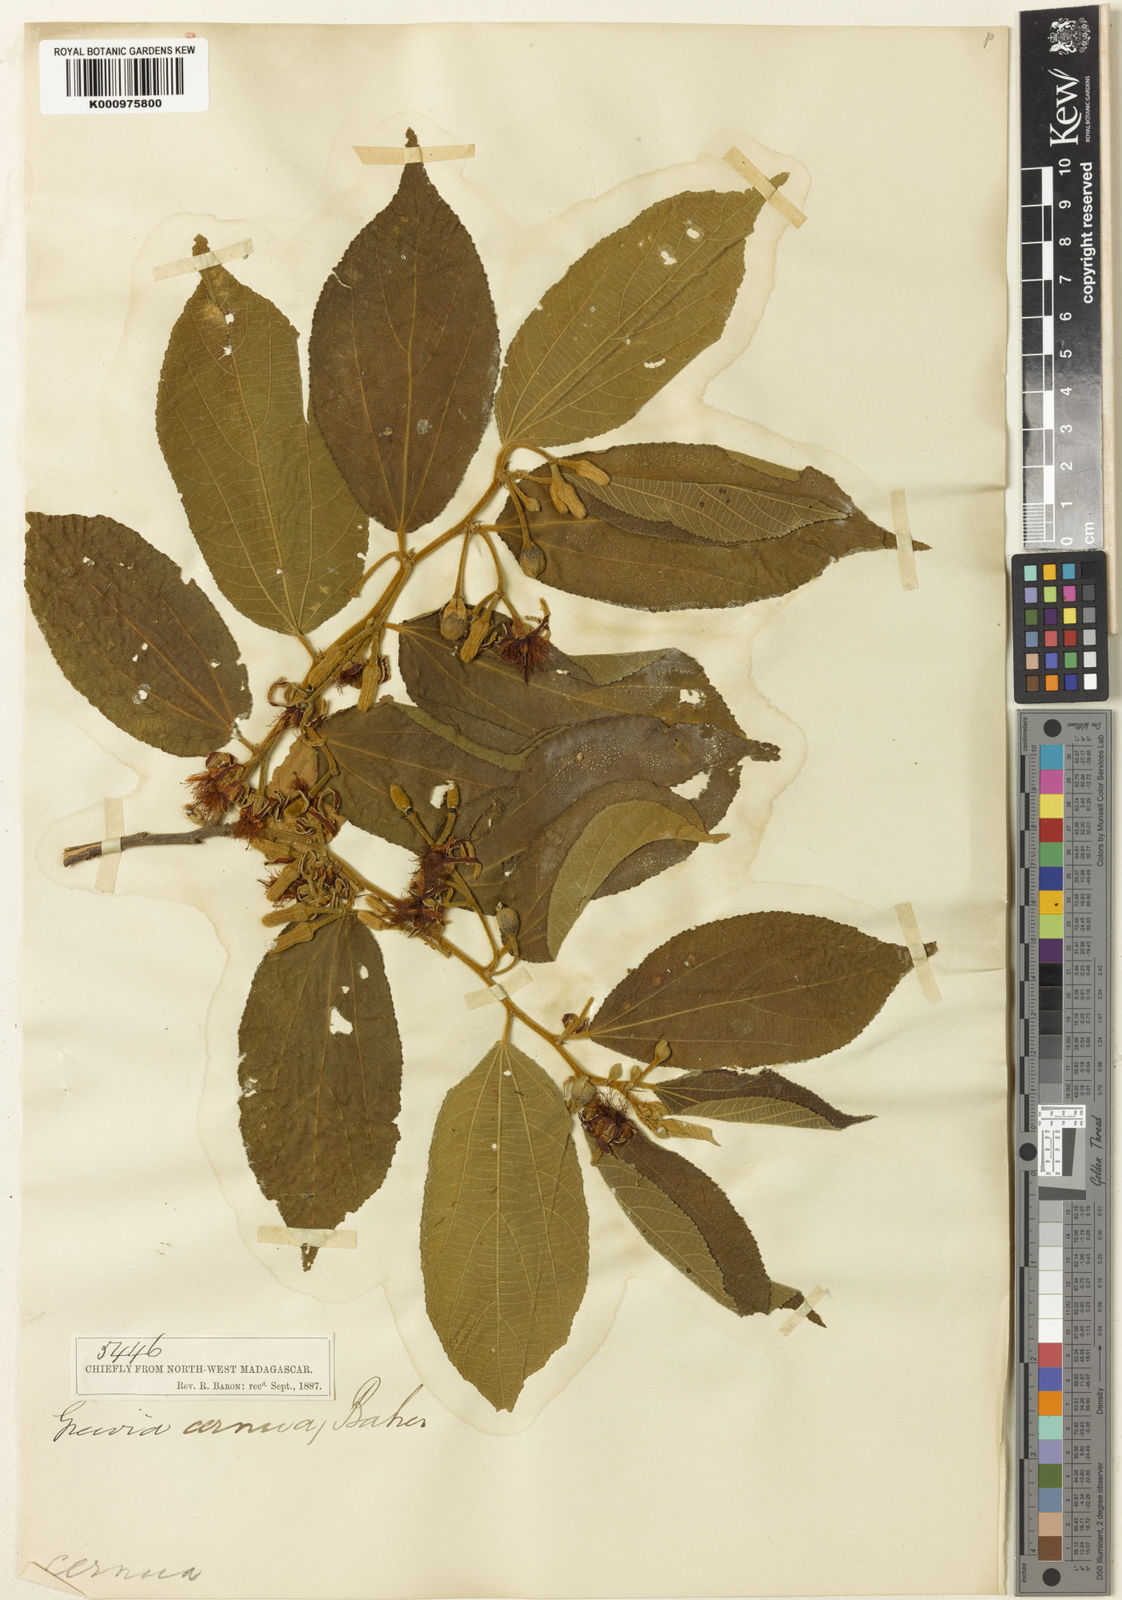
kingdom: Plantae
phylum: Tracheophyta
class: Magnoliopsida
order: Malvales
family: Malvaceae
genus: Grewia
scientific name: Grewia flavicans
